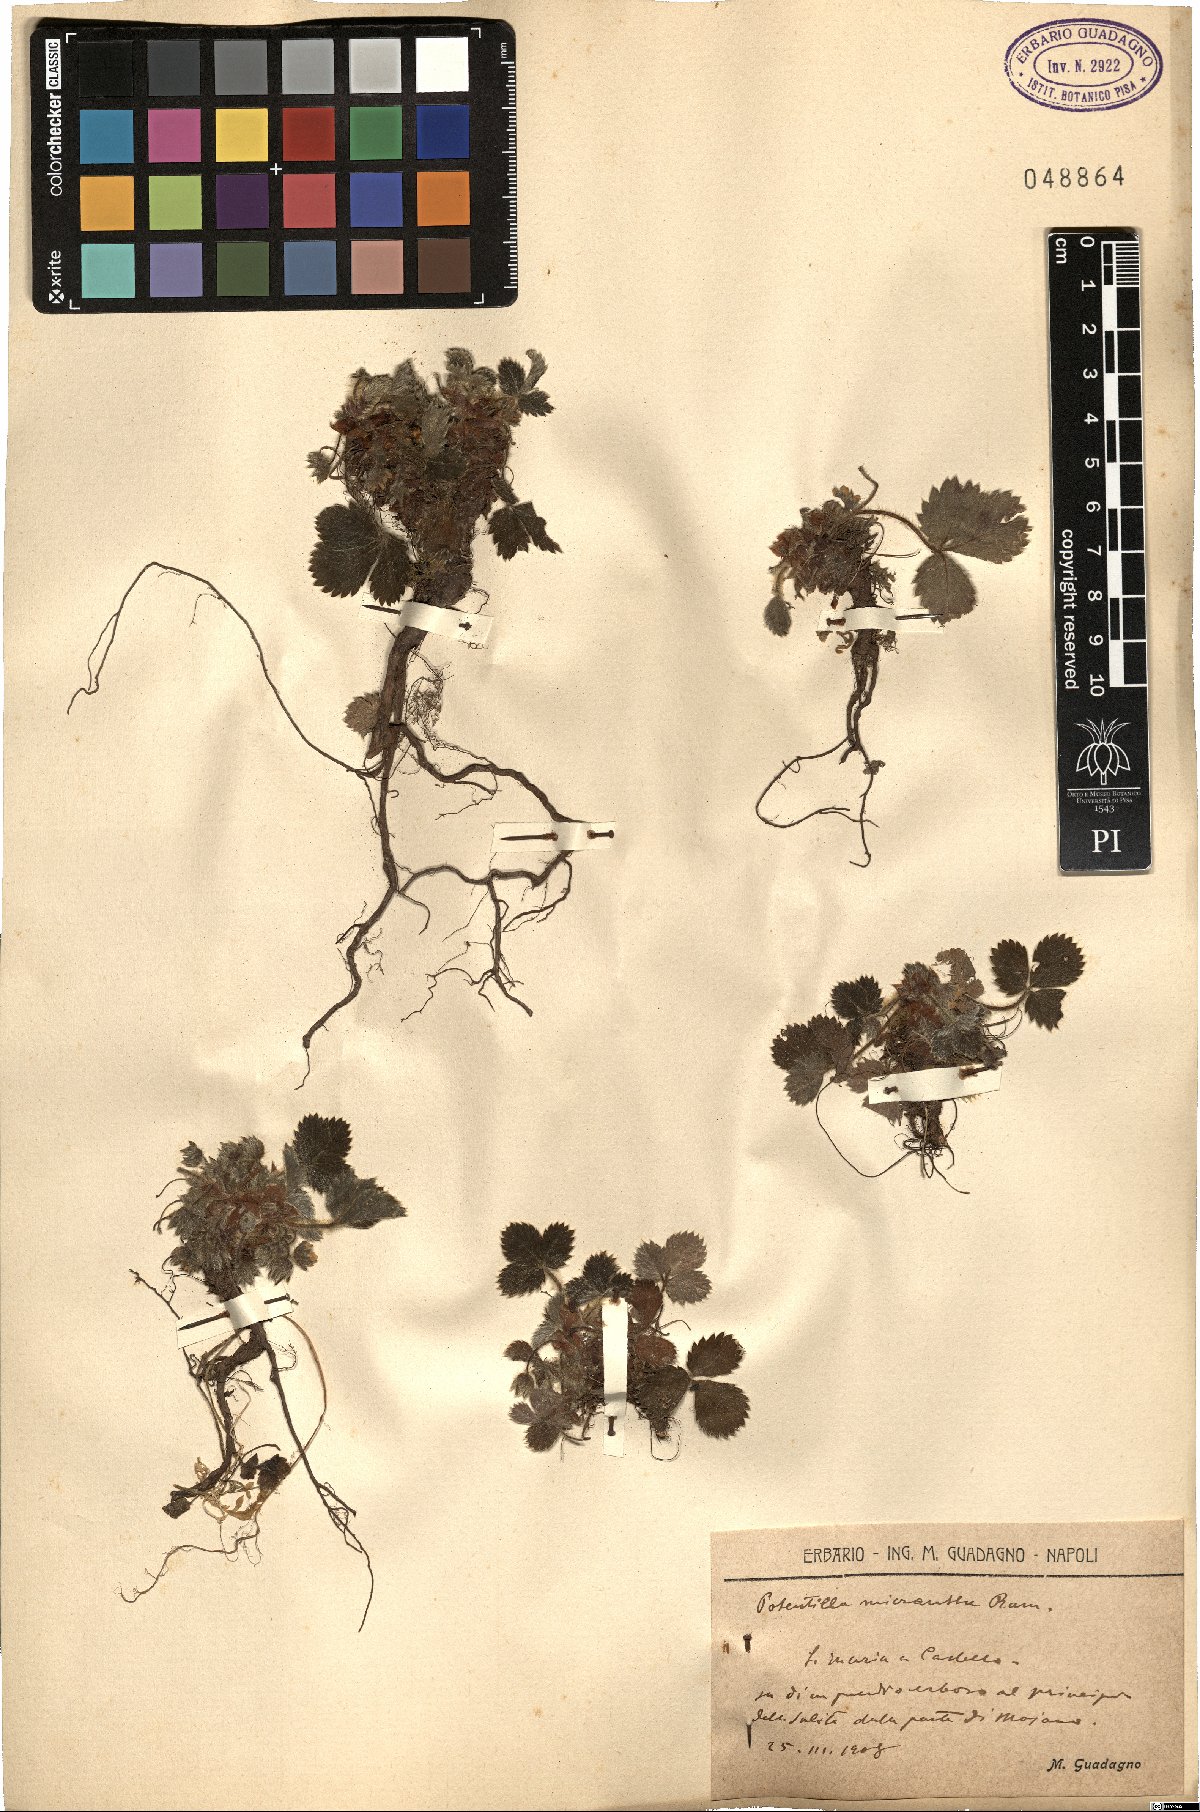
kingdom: Plantae
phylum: Tracheophyta
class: Magnoliopsida
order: Rosales
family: Rosaceae
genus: Potentilla
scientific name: Potentilla micrantha
